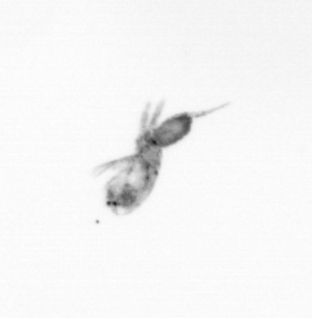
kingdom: Animalia
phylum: Arthropoda
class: Copepoda
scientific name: Copepoda
